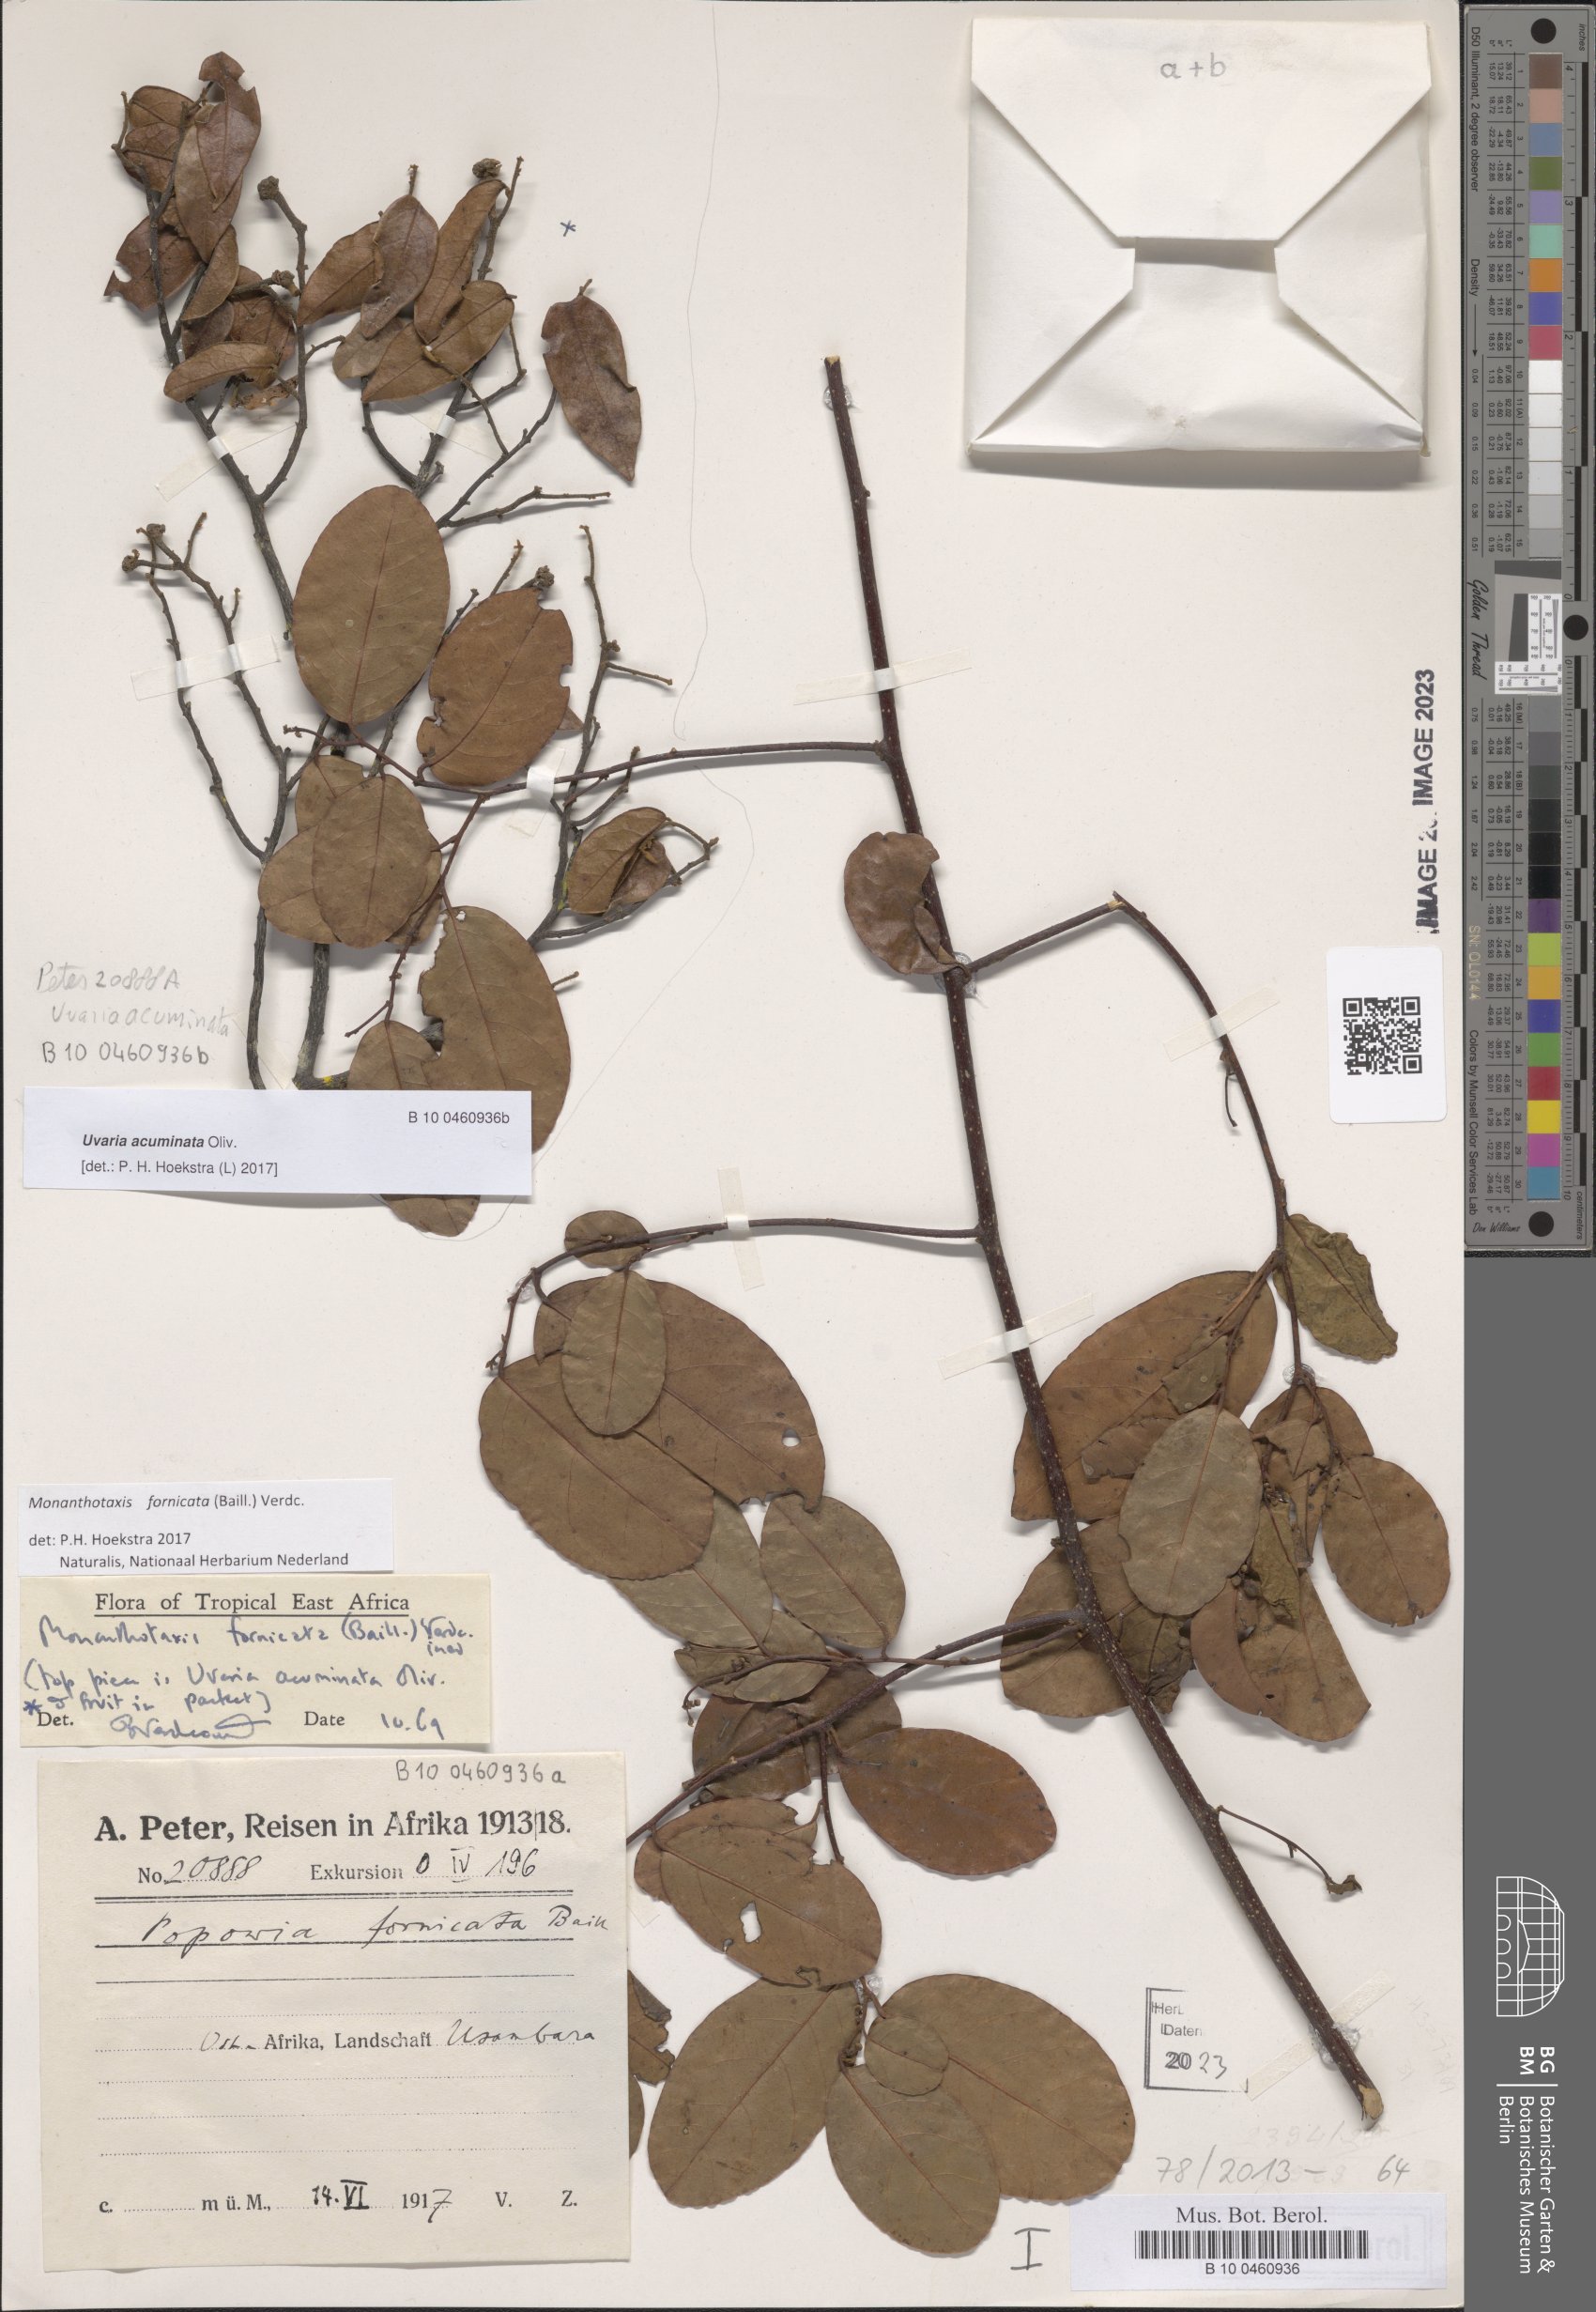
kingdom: Plantae
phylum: Tracheophyta
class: Magnoliopsida
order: Magnoliales
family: Annonaceae
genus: Monanthotaxis
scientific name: Monanthotaxis fornicata
